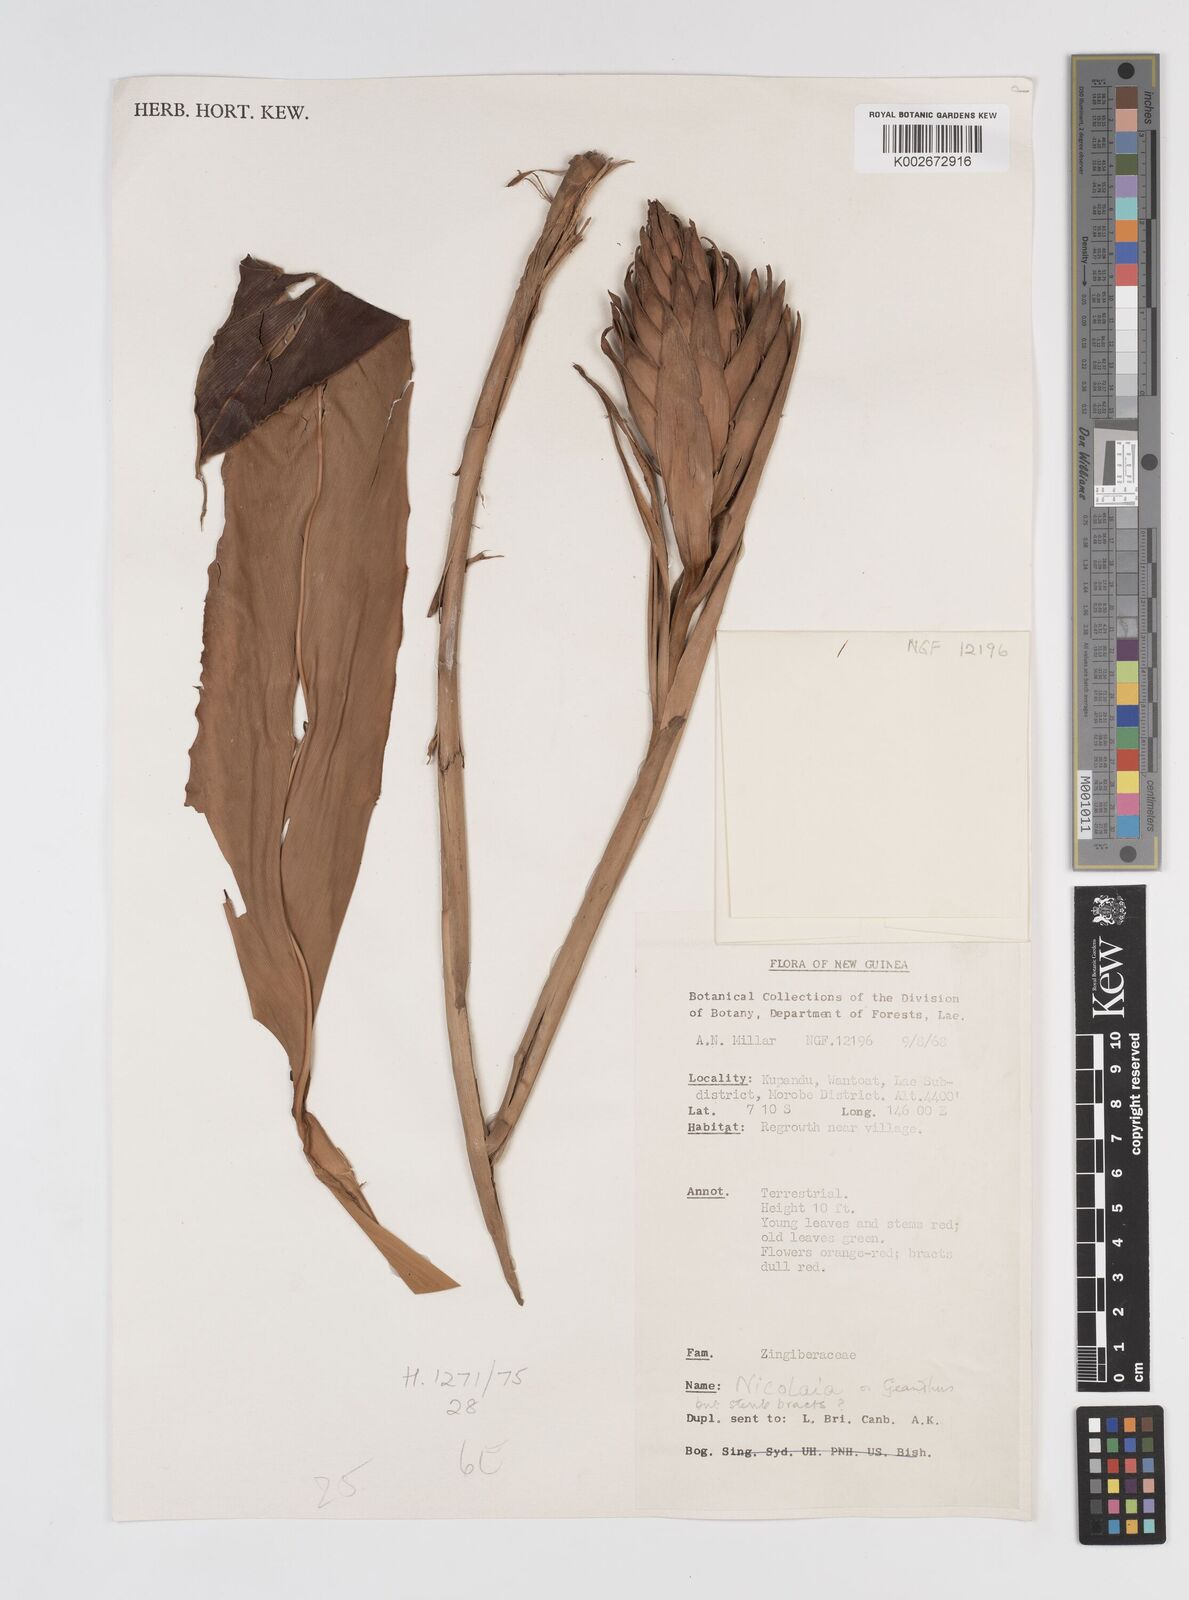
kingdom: Plantae
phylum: Tracheophyta
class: Liliopsida
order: Zingiberales
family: Zingiberaceae
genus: Etlingera
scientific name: Etlingera
